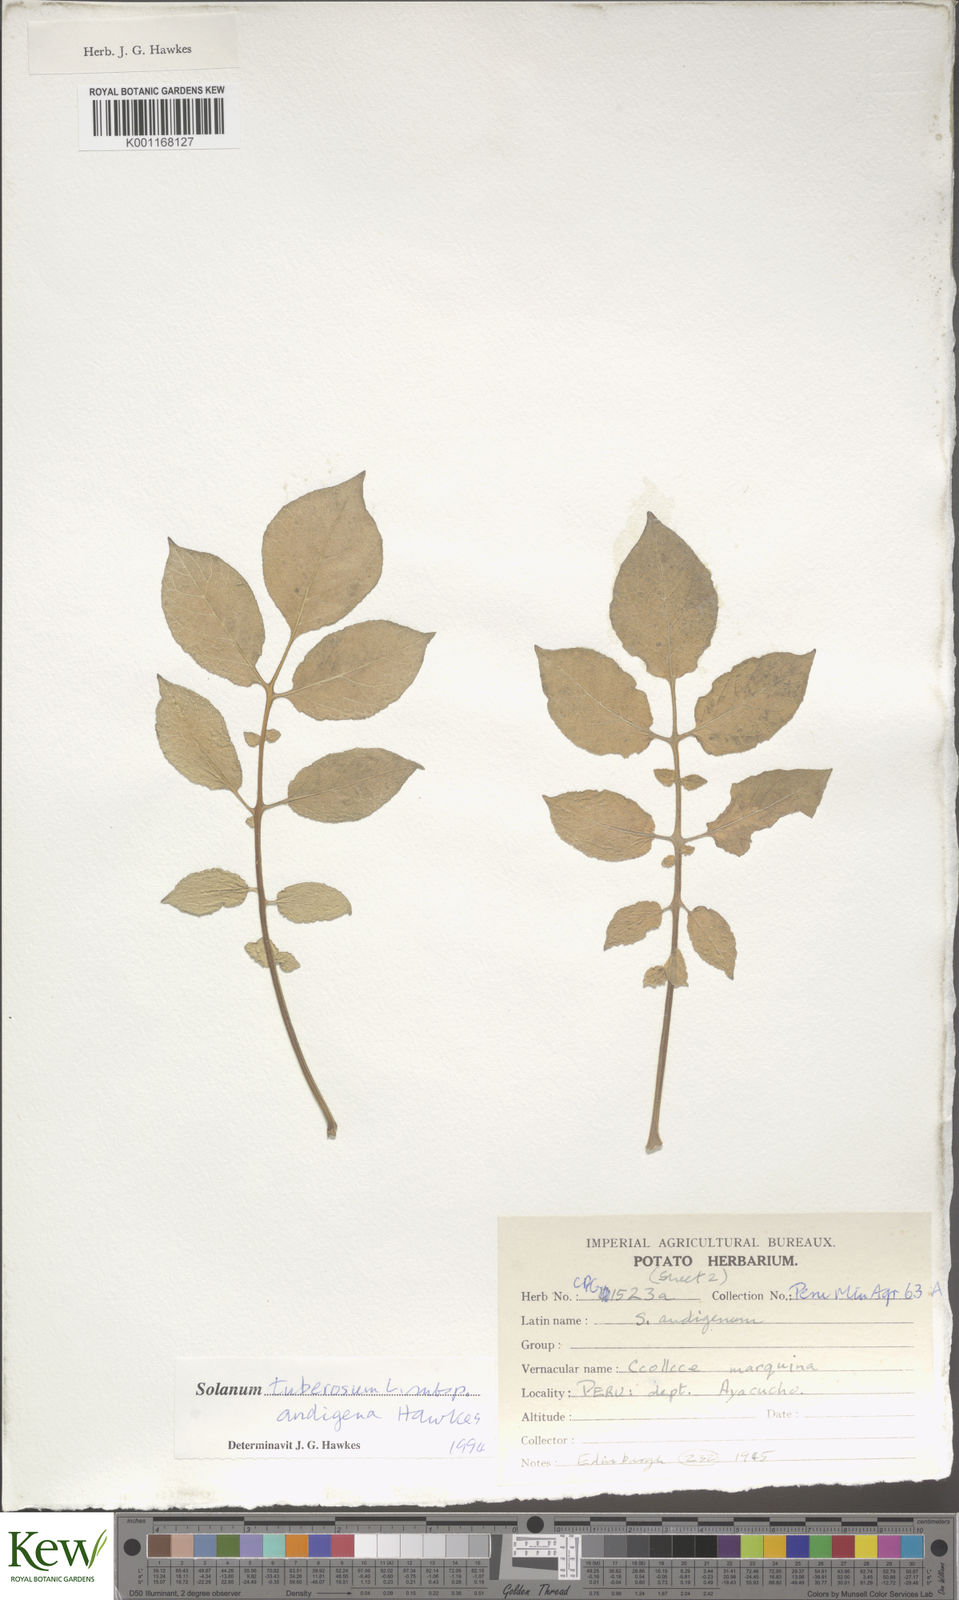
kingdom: Plantae
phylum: Tracheophyta
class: Magnoliopsida
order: Solanales
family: Solanaceae
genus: Solanum
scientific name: Solanum tuberosum
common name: Potato
